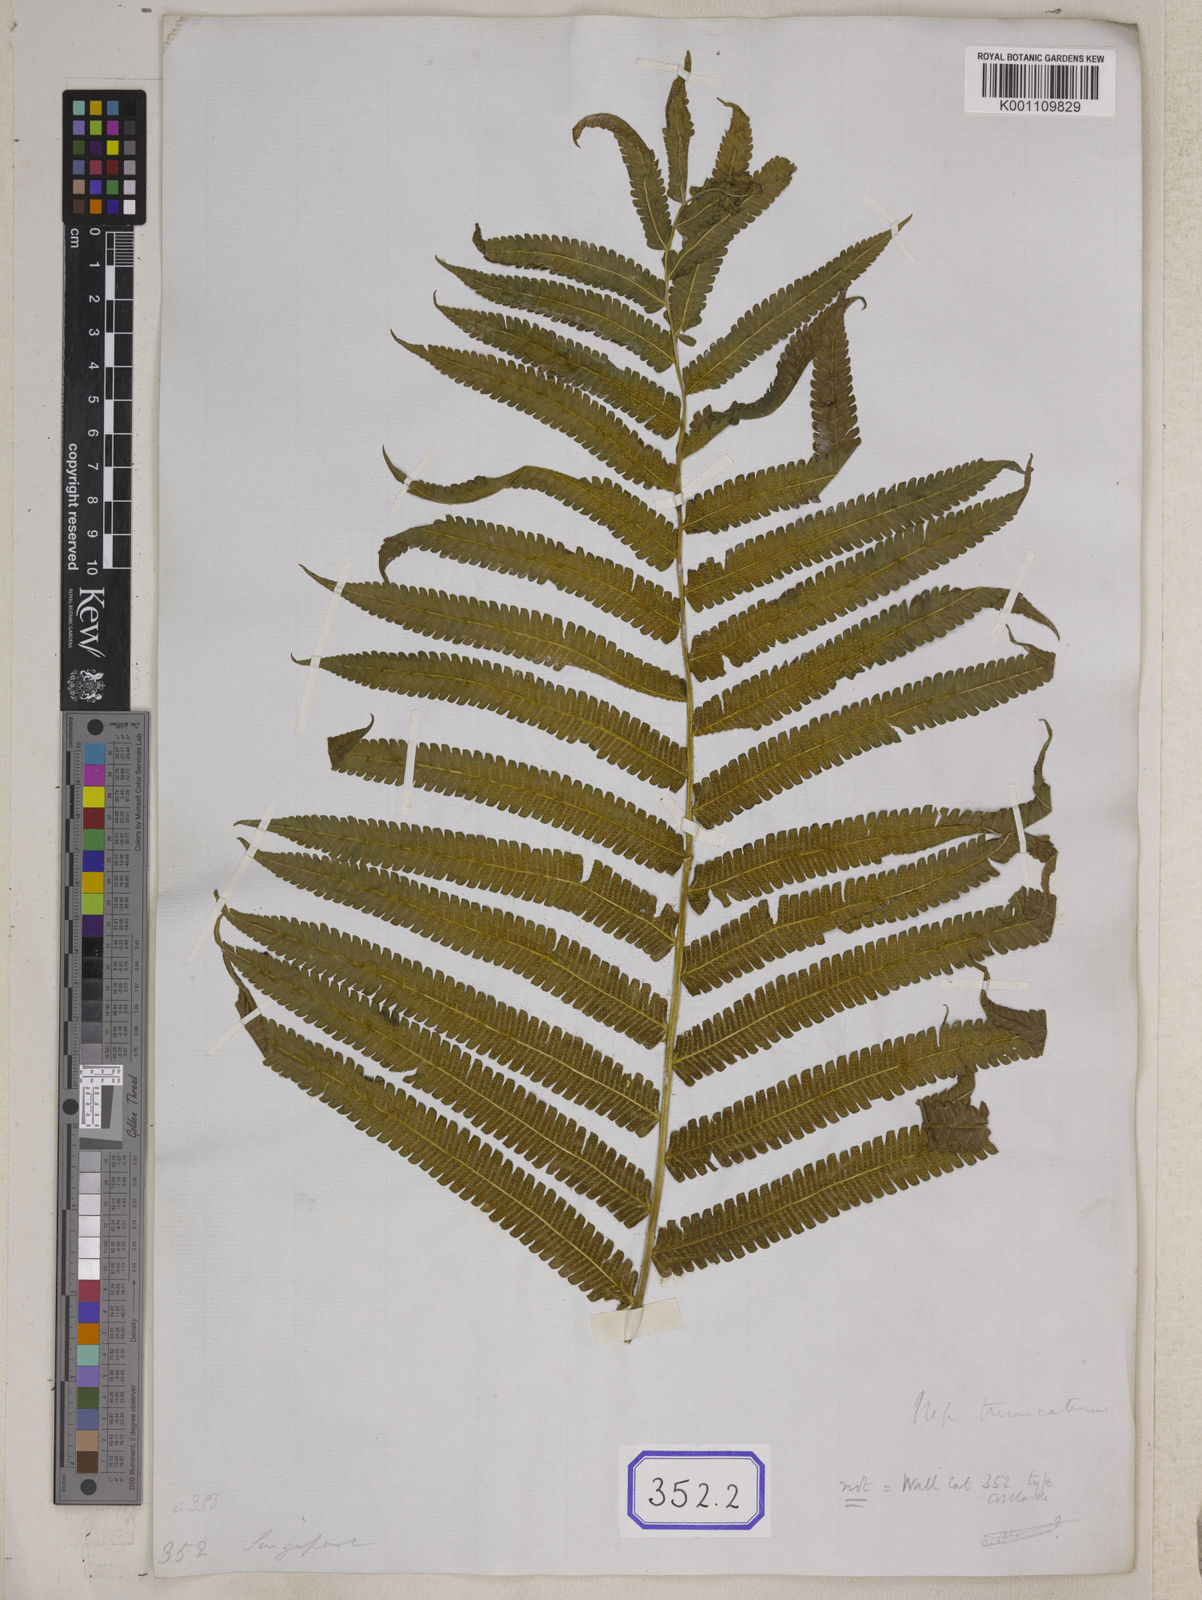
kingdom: Plantae
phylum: Tracheophyta
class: Polypodiopsida
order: Polypodiales
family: Thelypteridaceae
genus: Christella
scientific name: Christella arida
